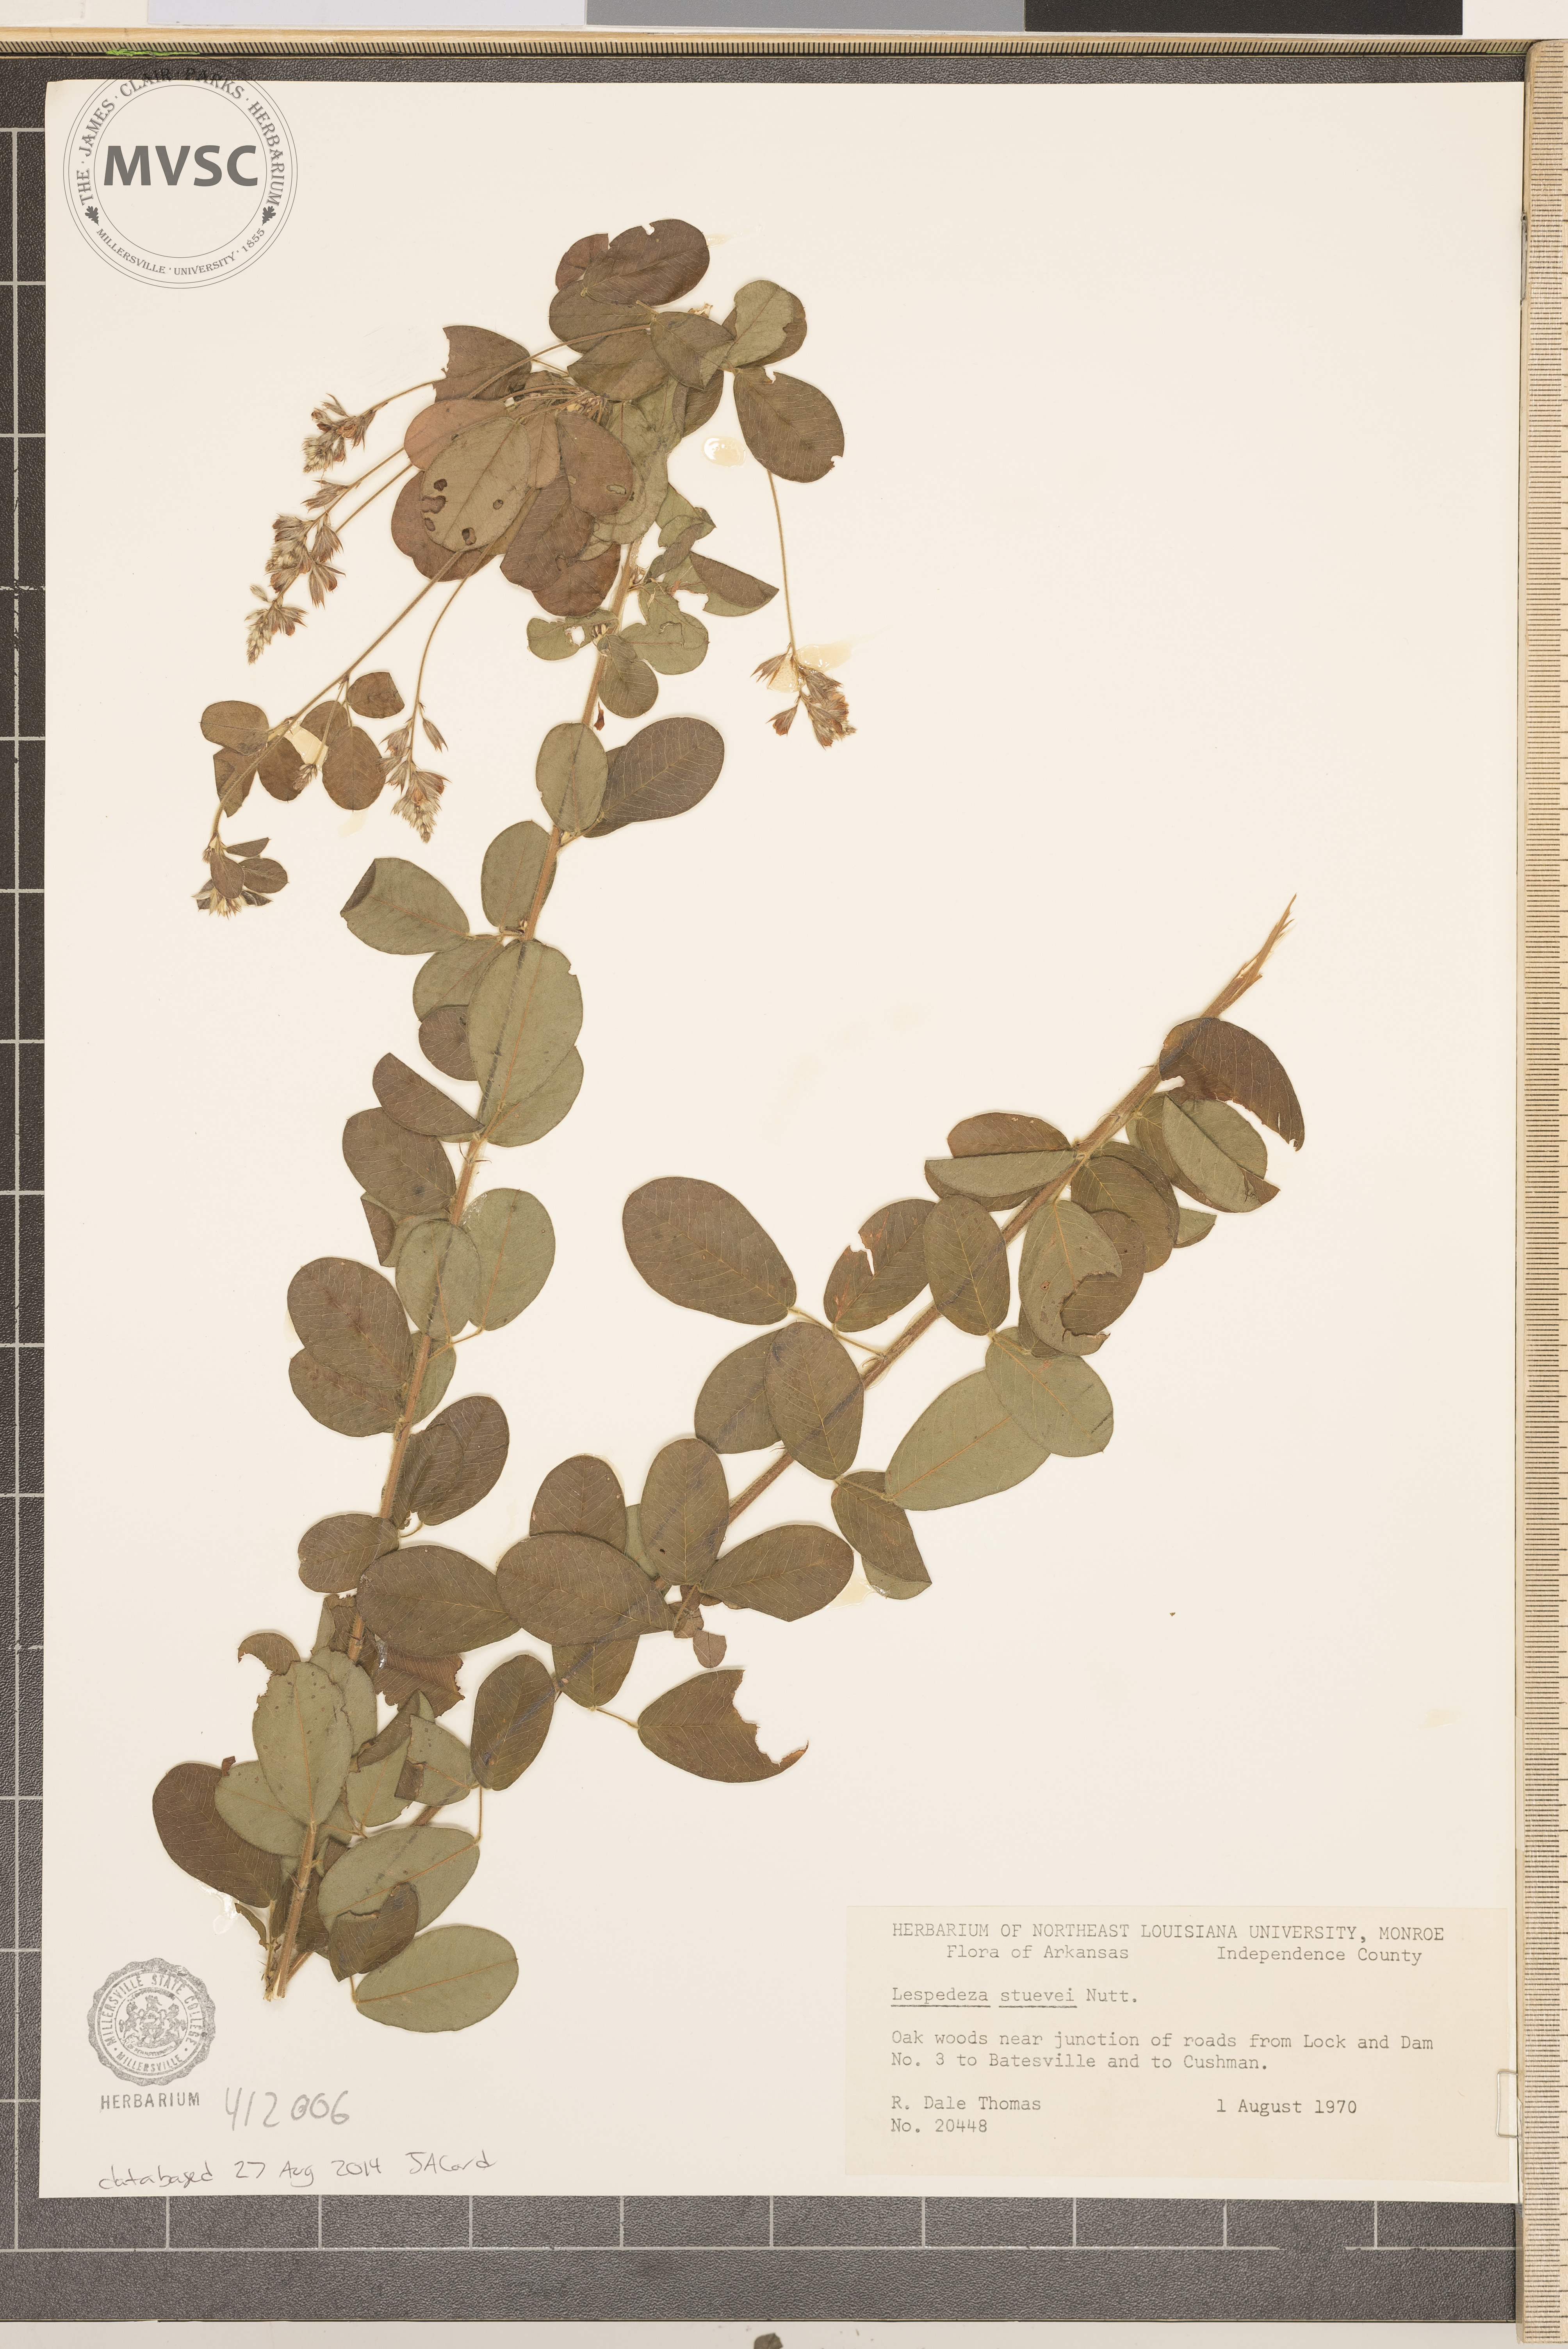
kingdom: Plantae
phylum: Tracheophyta
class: Magnoliopsida
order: Fabales
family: Fabaceae
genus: Lespedeza
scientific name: Lespedeza stuevei
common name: Tall bush-clover
